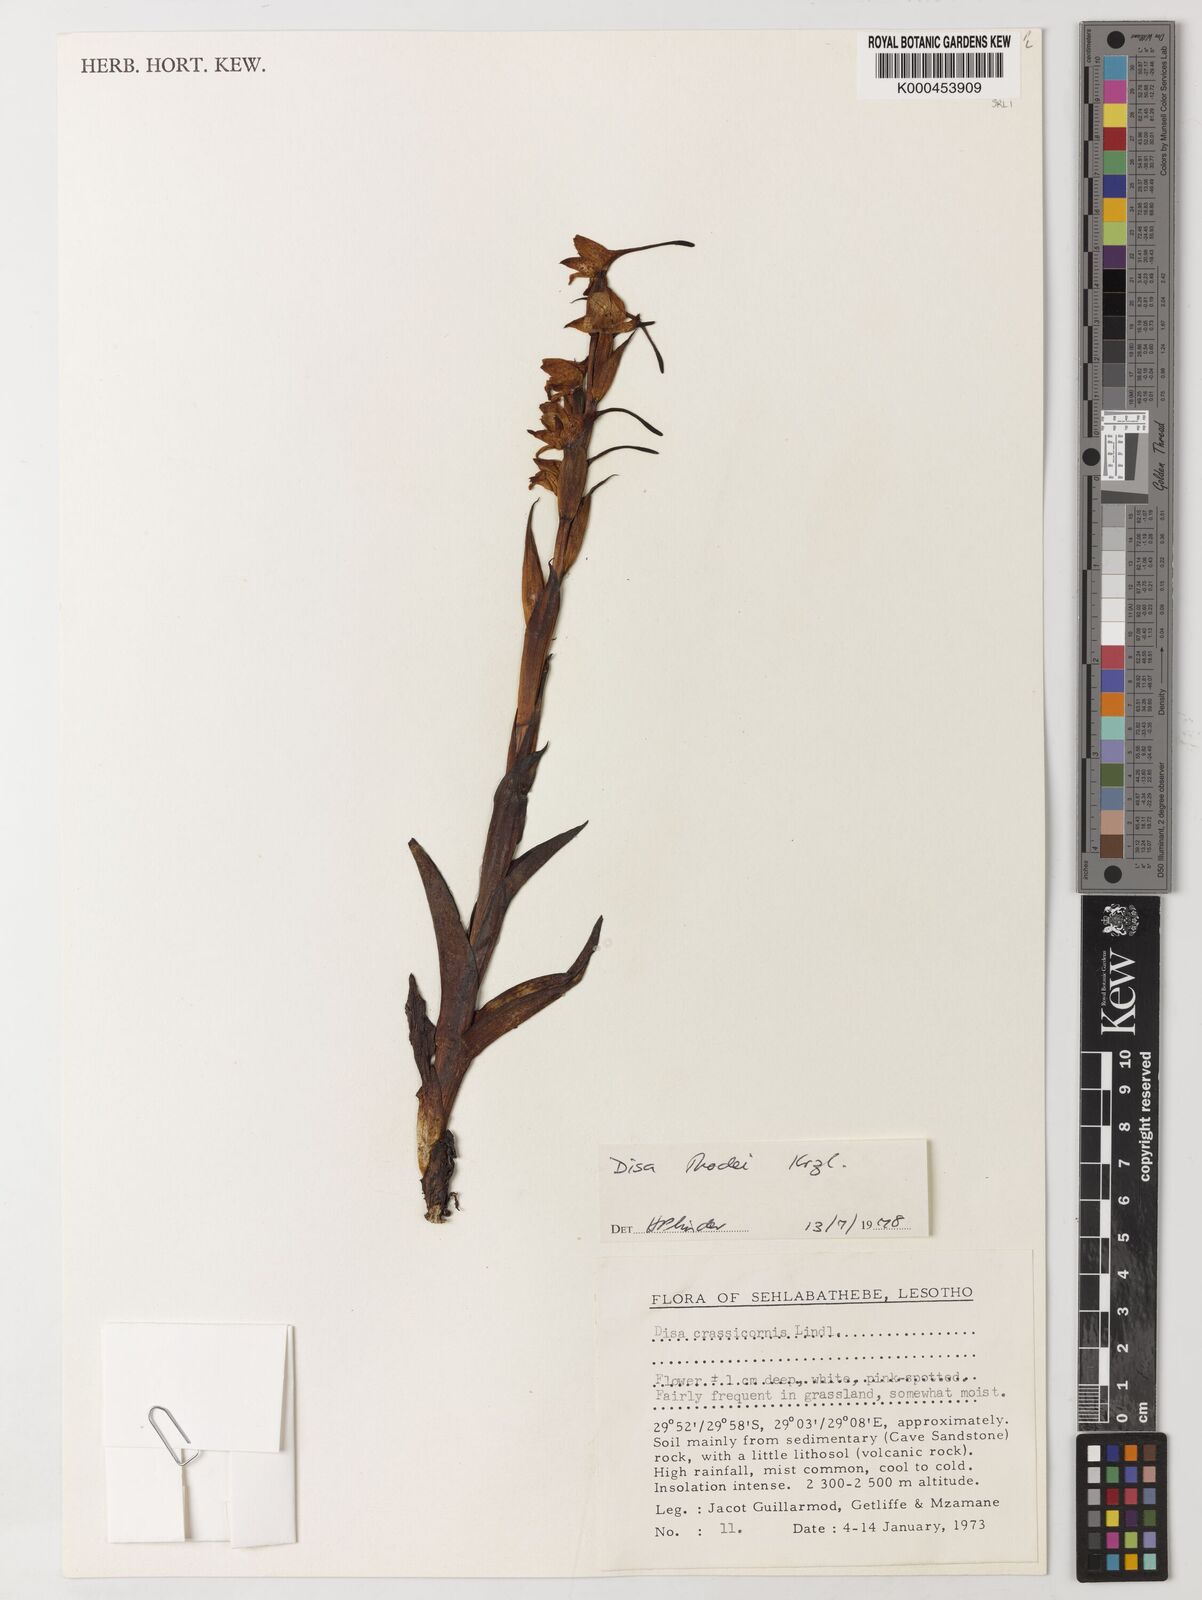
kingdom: Plantae
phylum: Tracheophyta
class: Liliopsida
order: Asparagales
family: Orchidaceae
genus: Disa
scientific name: Disa thodei
